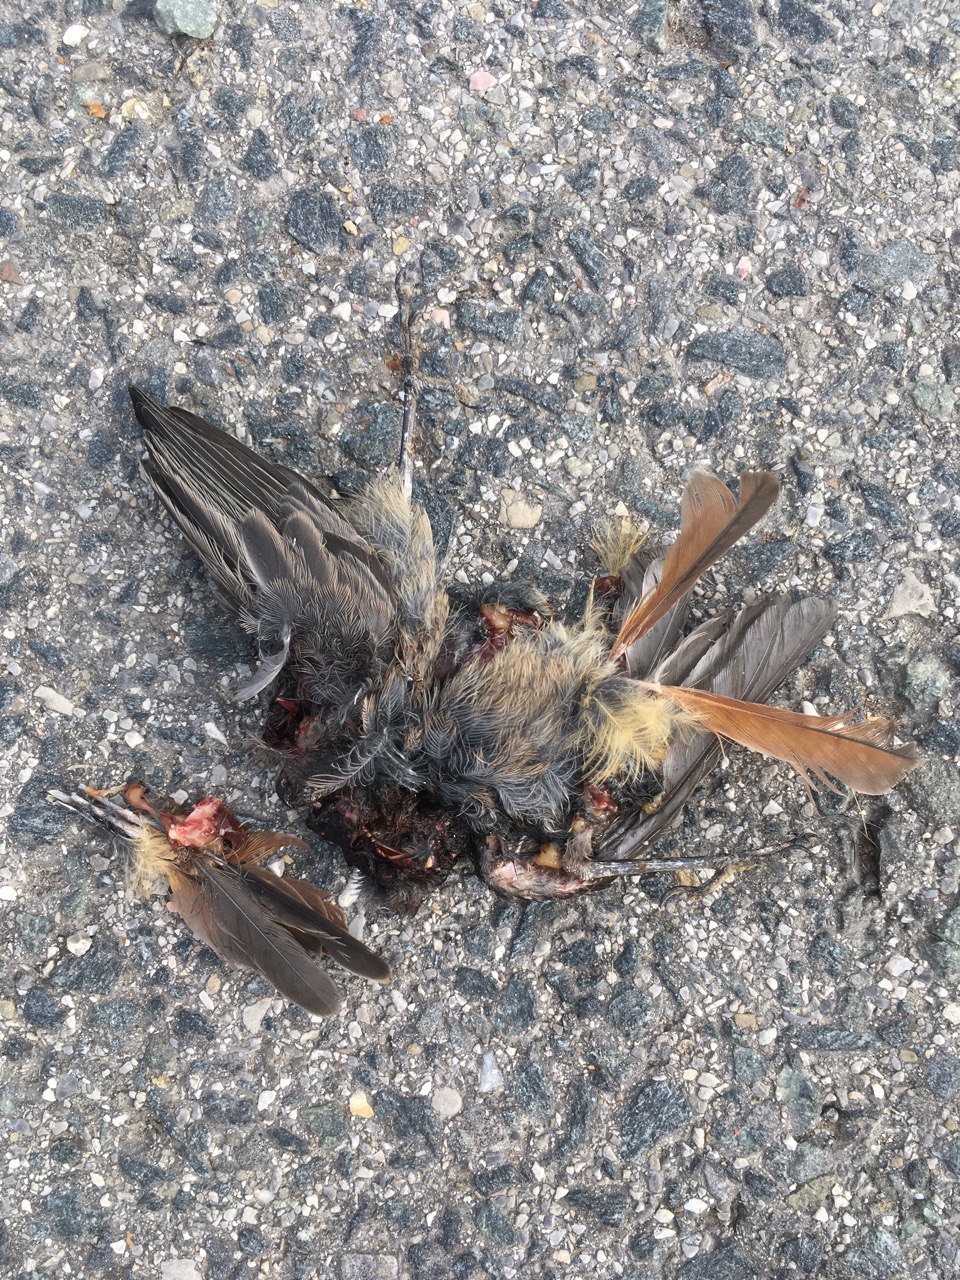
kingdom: Animalia
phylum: Chordata
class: Aves
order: Passeriformes
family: Muscicapidae
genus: Phoenicurus
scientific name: Phoenicurus
